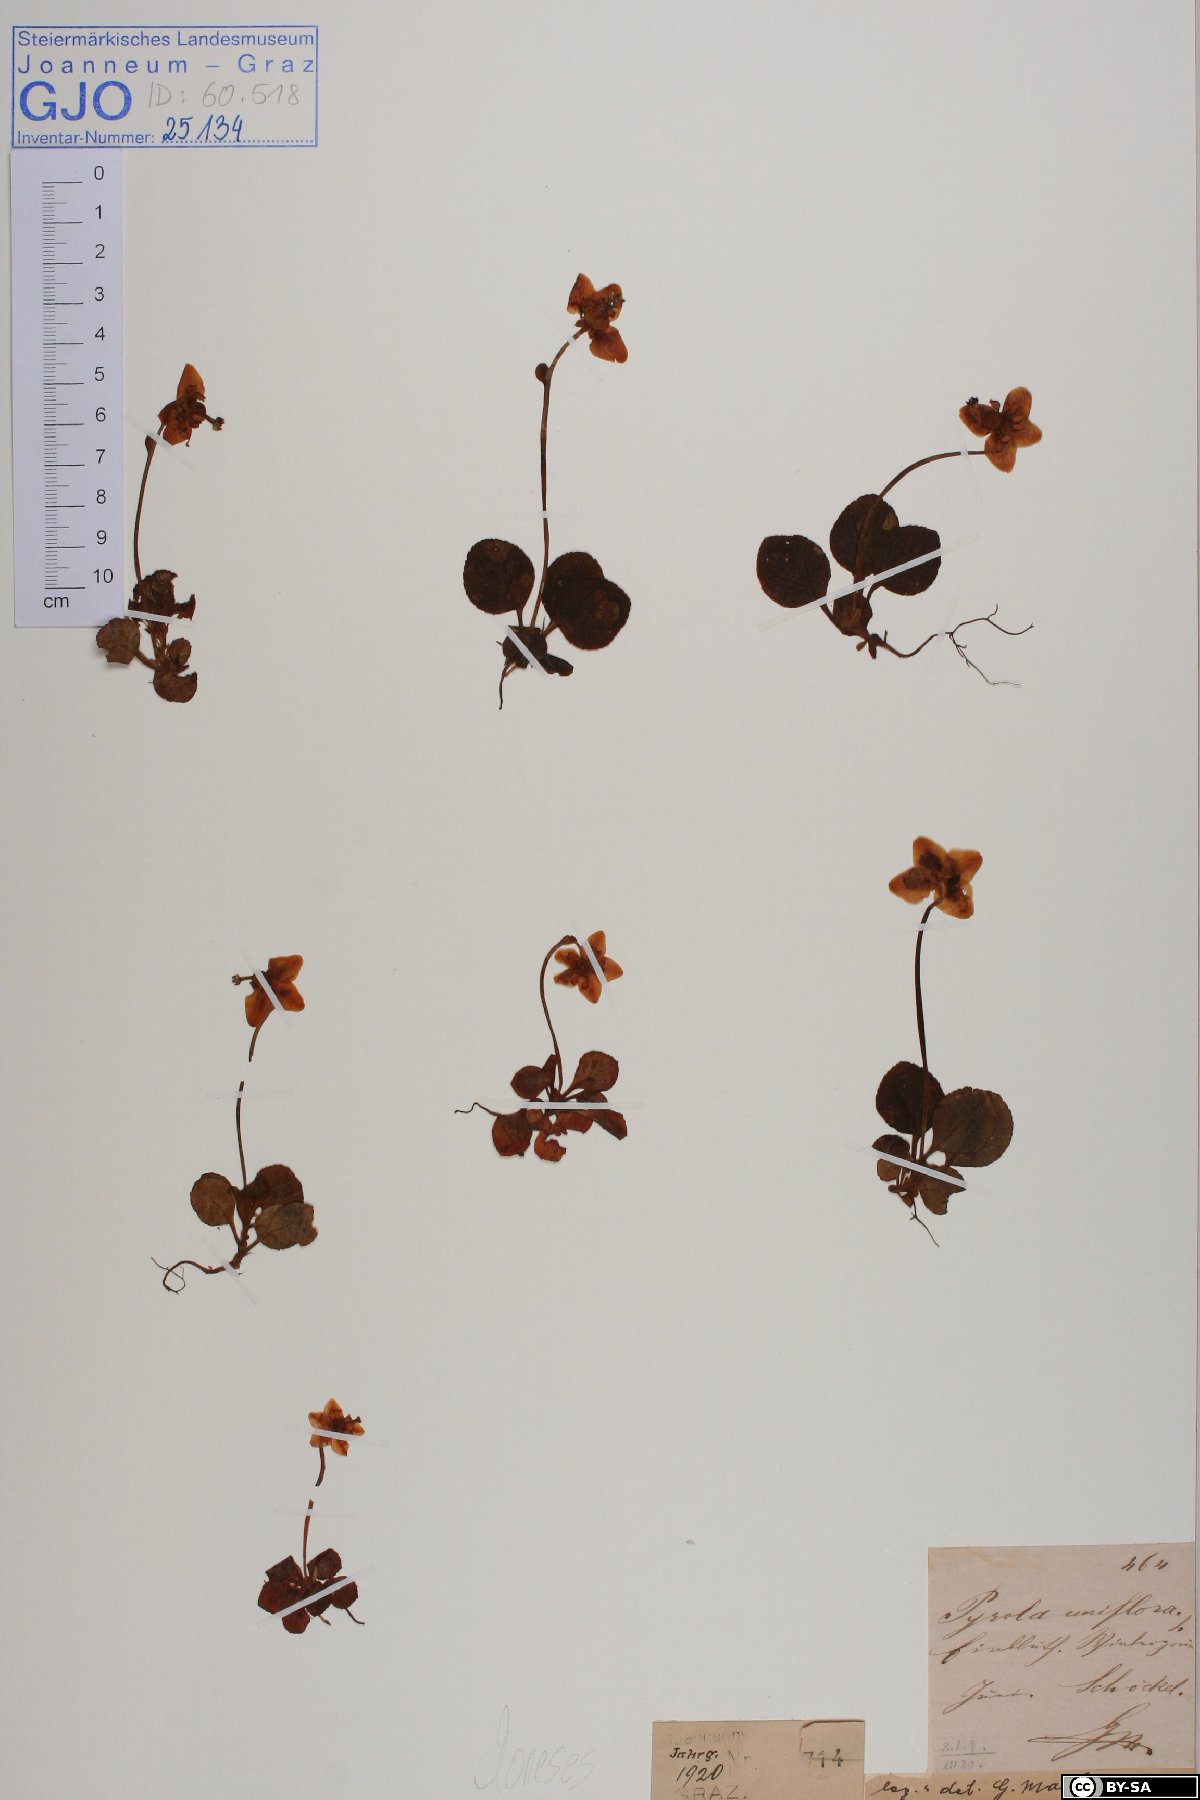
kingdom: Plantae
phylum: Tracheophyta
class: Magnoliopsida
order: Ericales
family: Ericaceae
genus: Moneses
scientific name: Moneses uniflora
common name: One-flowered wintergreen
